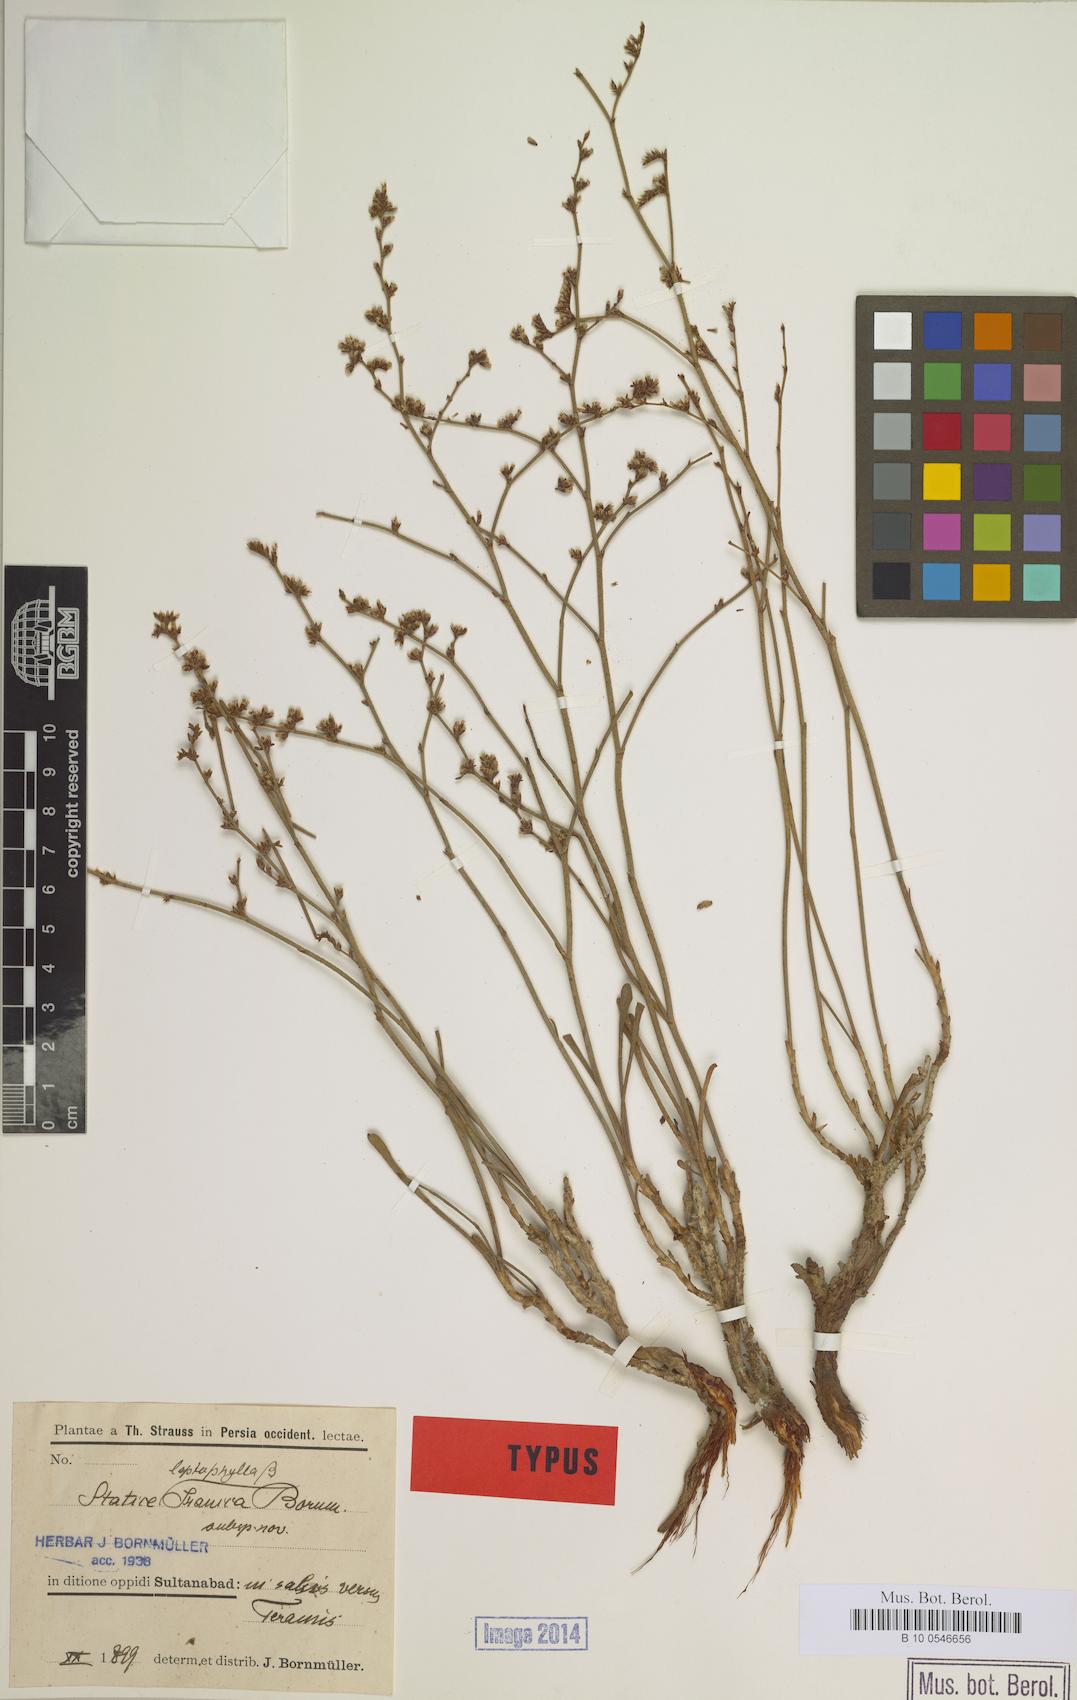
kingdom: Plantae
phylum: Tracheophyta
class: Magnoliopsida
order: Caryophyllales
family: Plumbaginaceae
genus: Limonium
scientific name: Limonium iranicum
